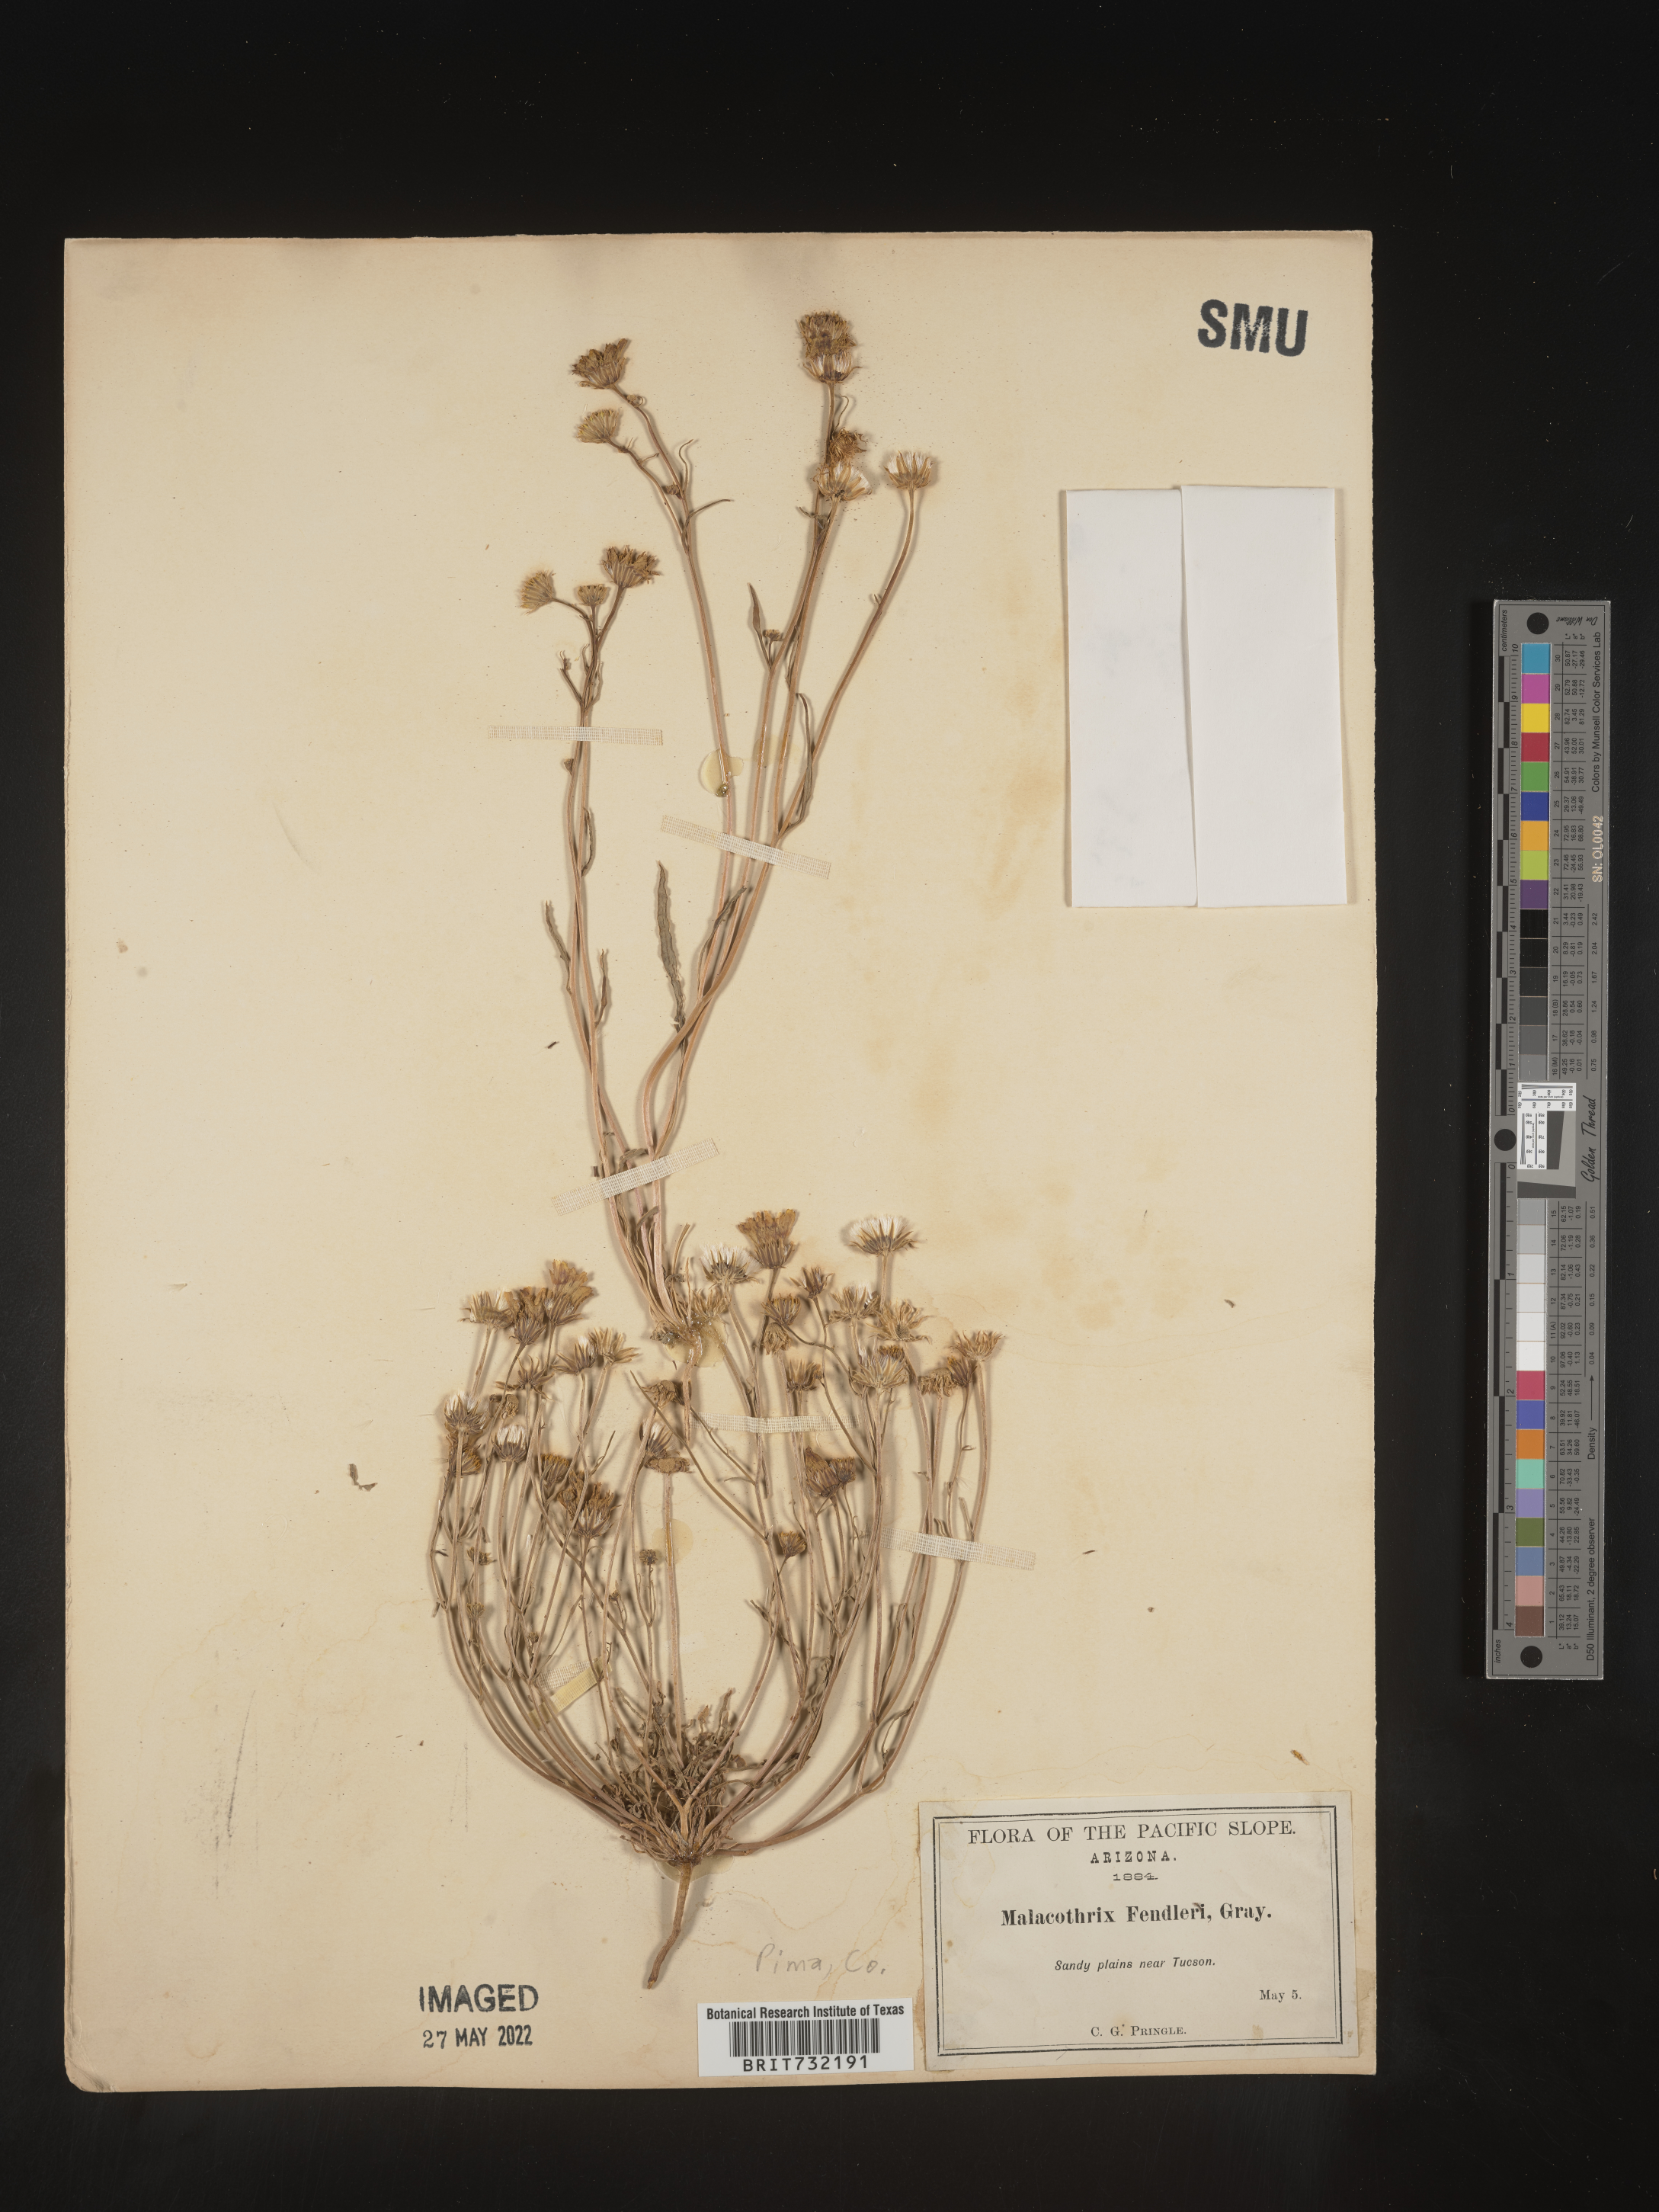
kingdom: Plantae
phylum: Tracheophyta
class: Magnoliopsida
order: Asterales
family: Asteraceae
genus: Malacothrix
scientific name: Malacothrix
